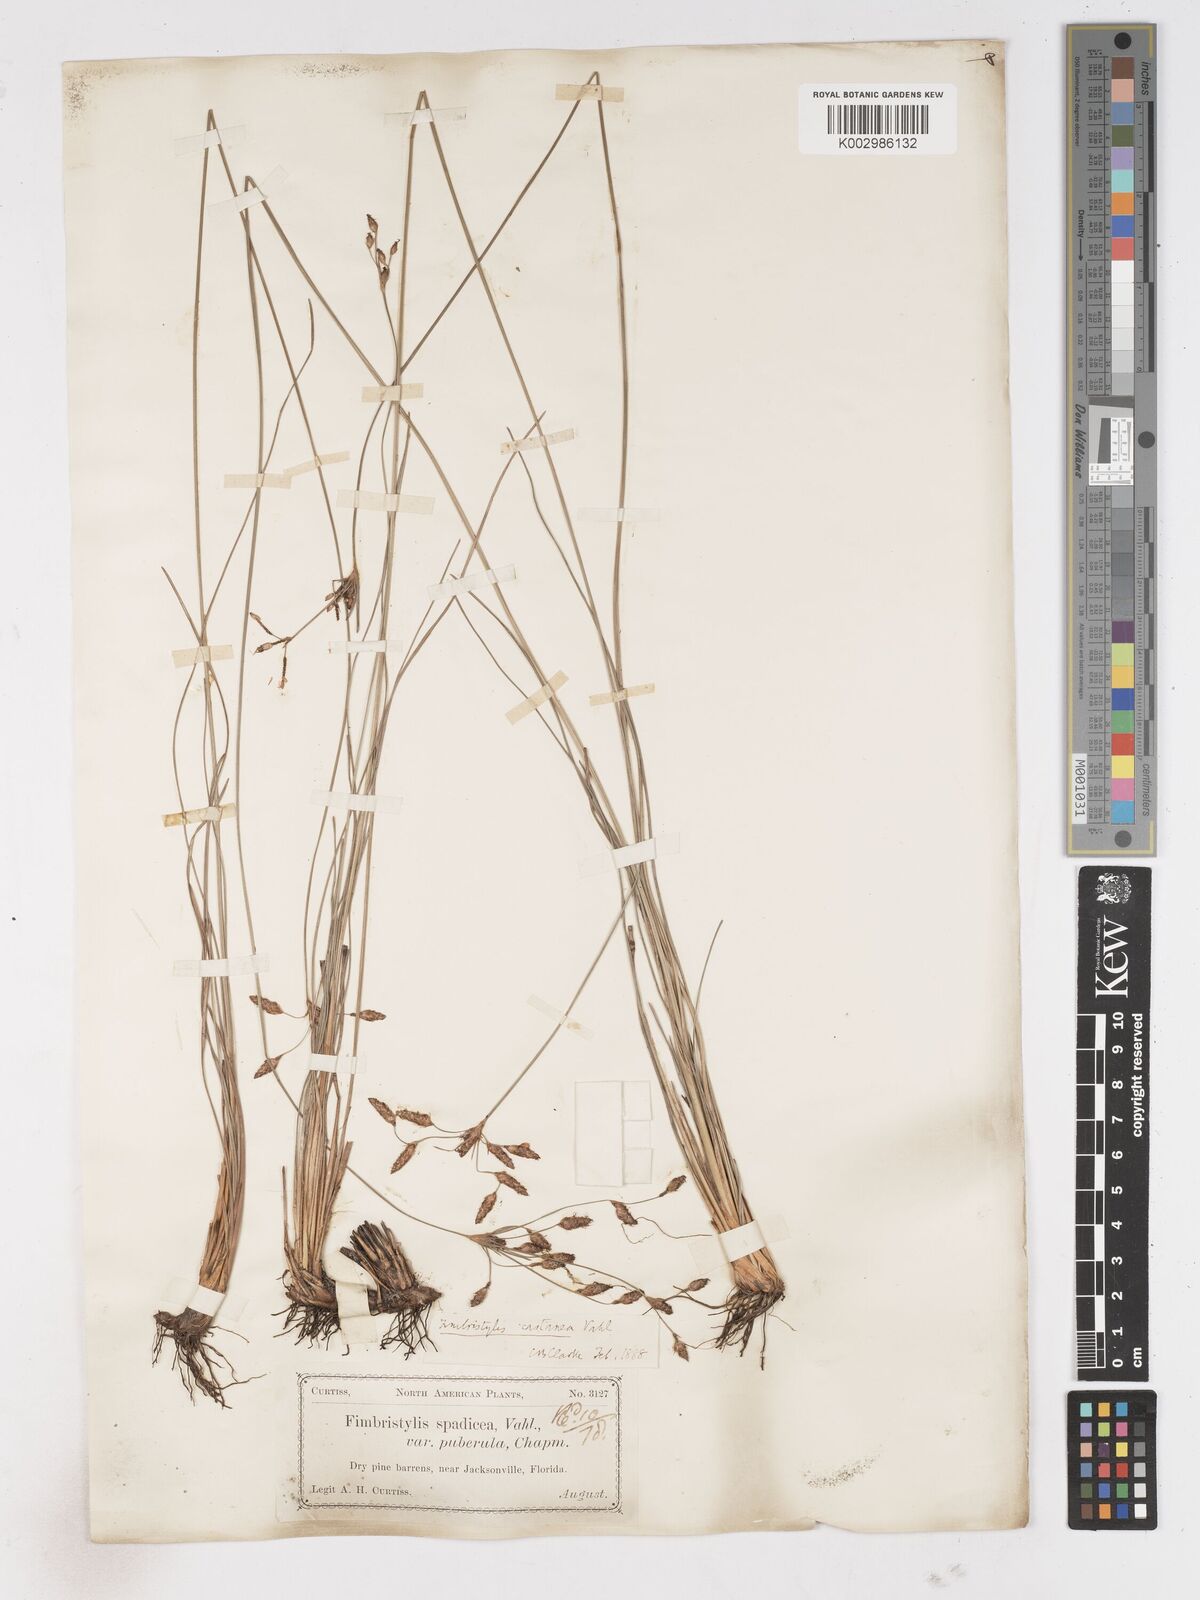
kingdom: Plantae
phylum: Tracheophyta
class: Liliopsida
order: Poales
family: Cyperaceae
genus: Fimbristylis
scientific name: Fimbristylis puberula
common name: Hairy fimbristylis
